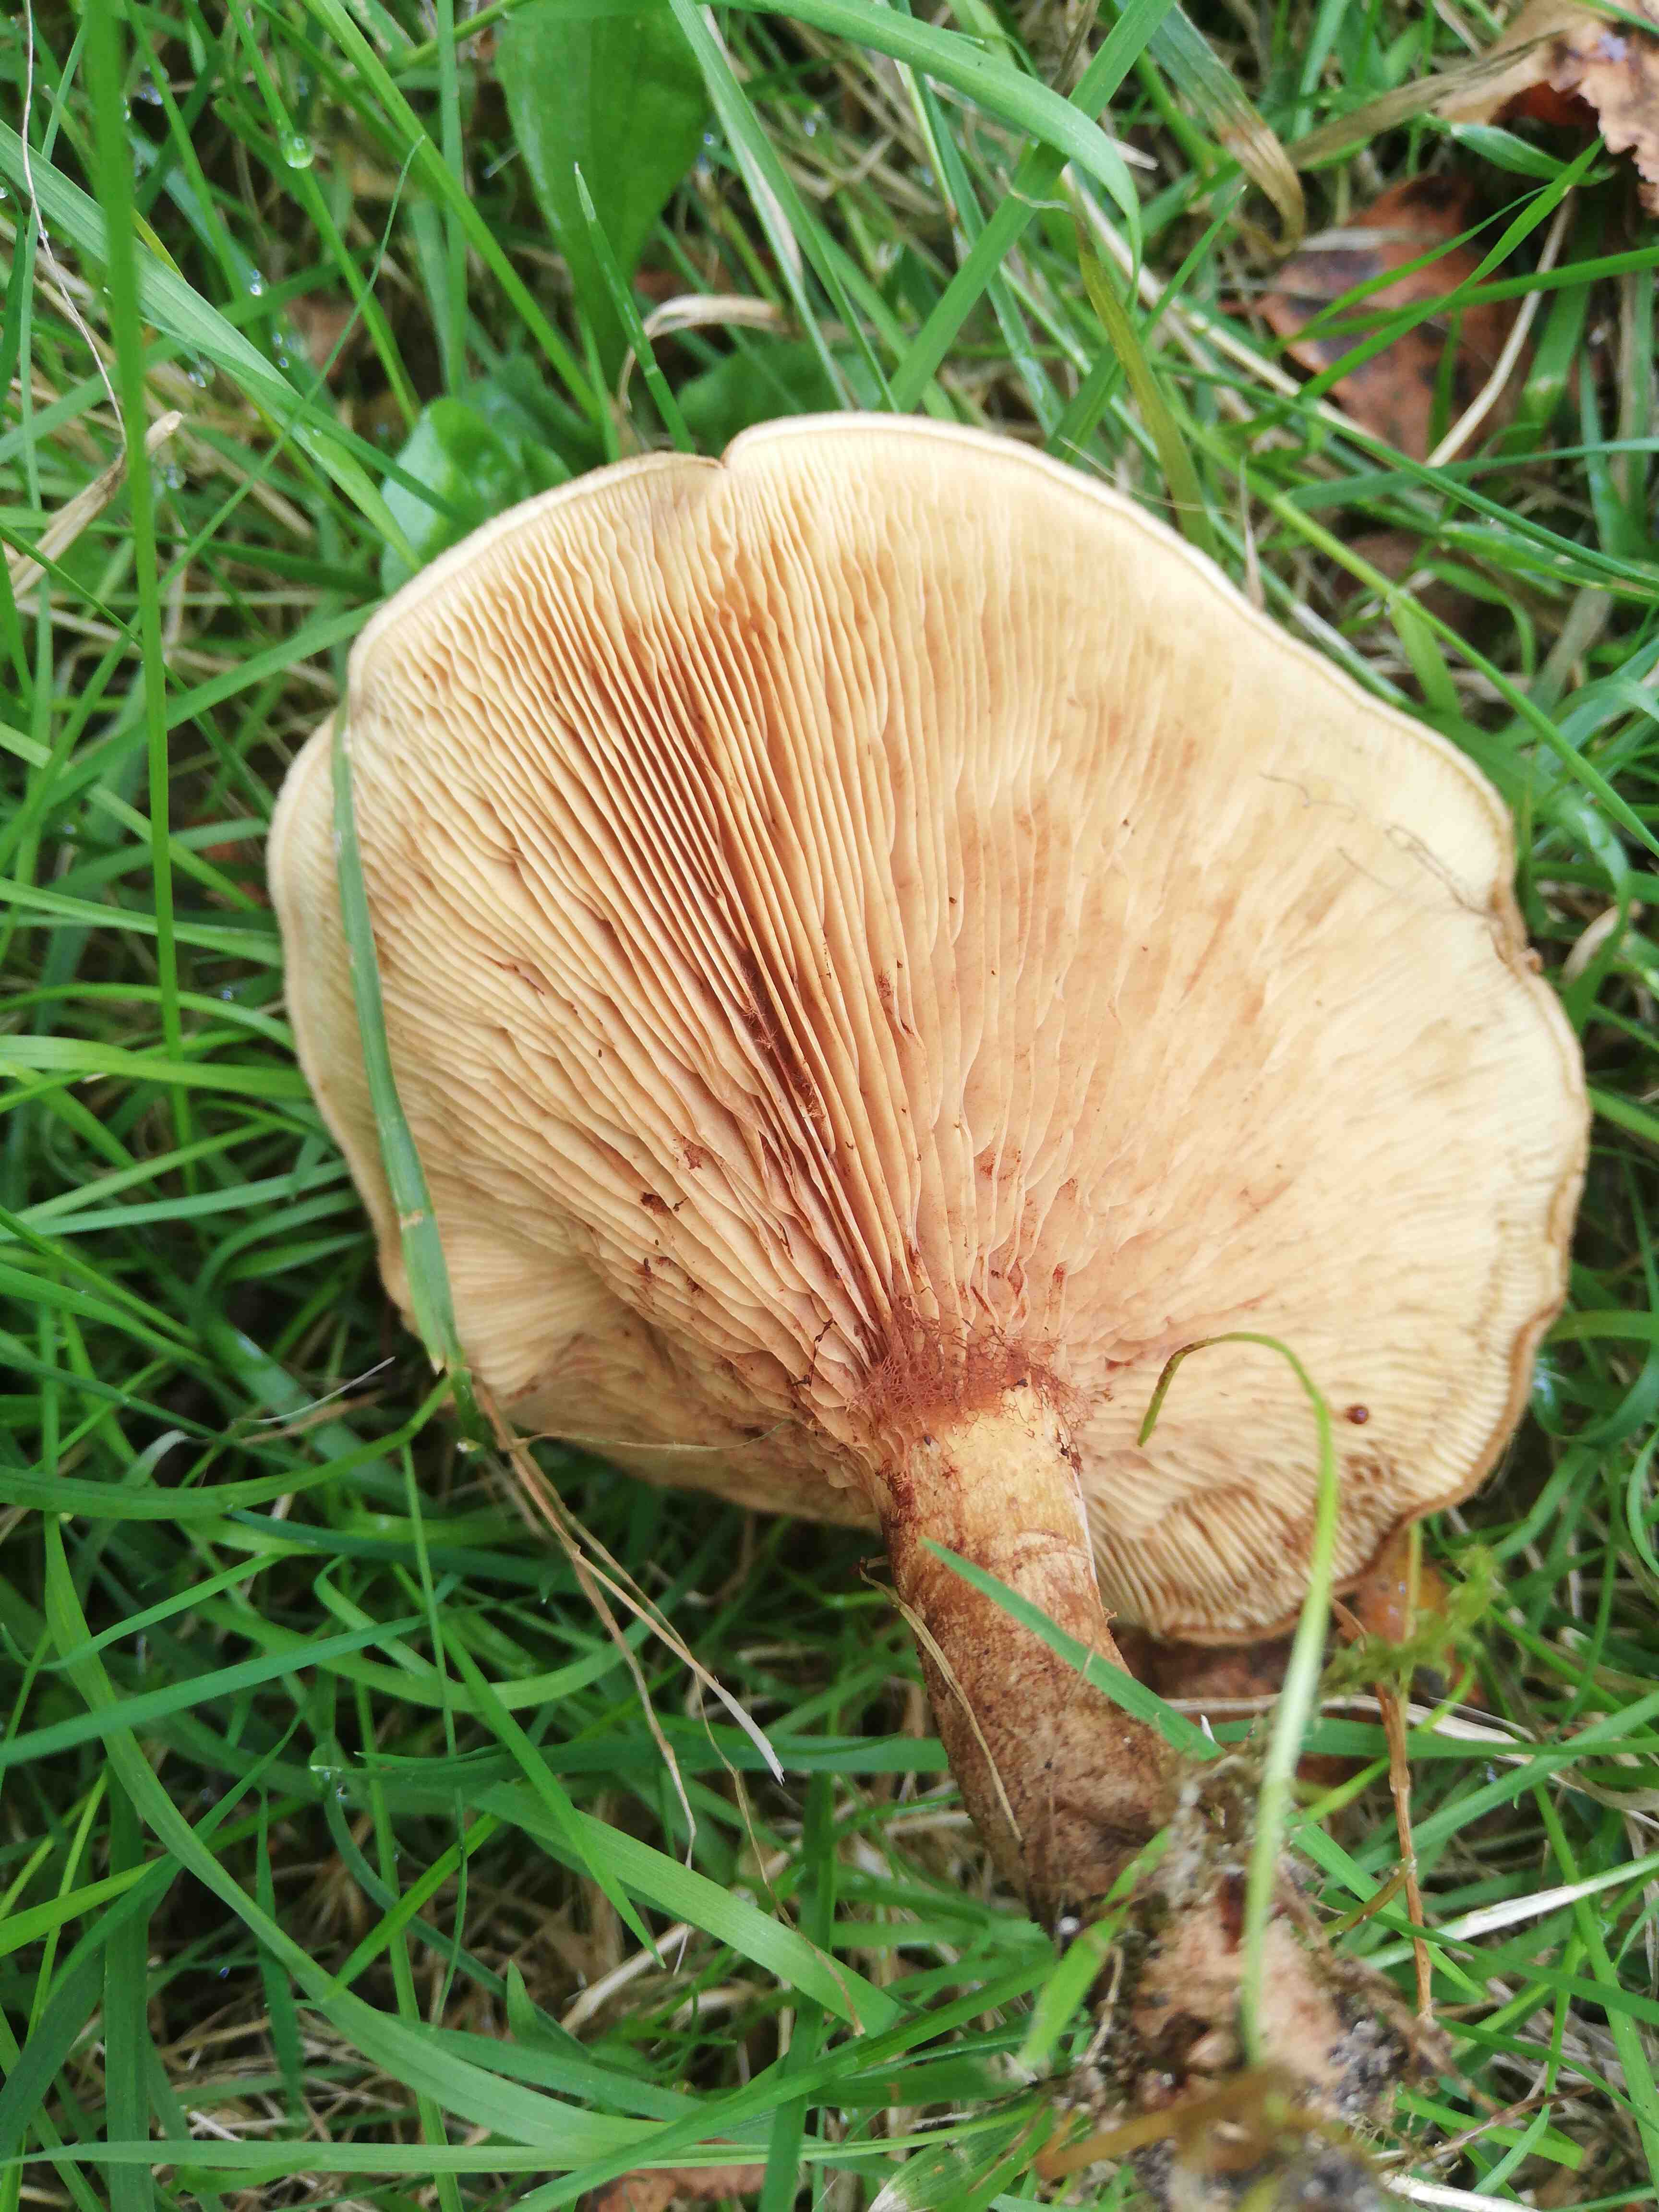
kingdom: Fungi
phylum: Basidiomycota
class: Agaricomycetes
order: Boletales
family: Paxillaceae
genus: Paxillus
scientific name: Paxillus
